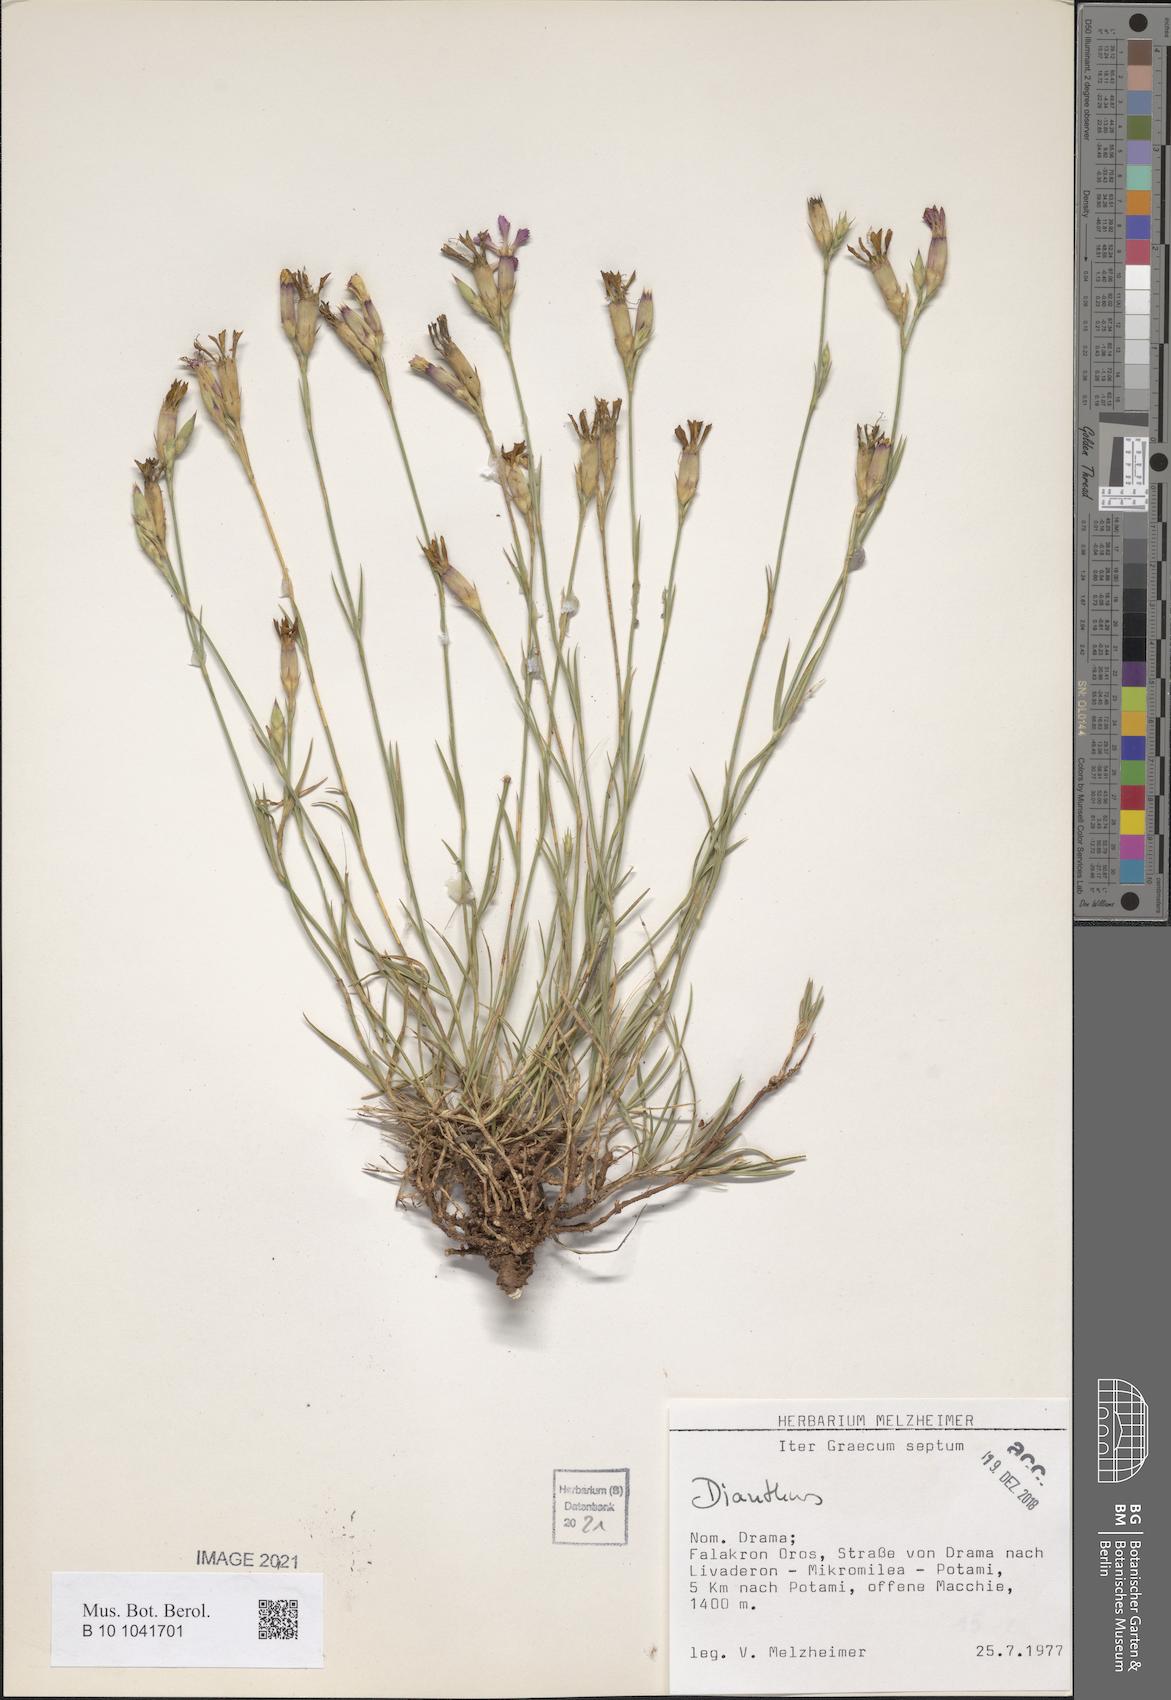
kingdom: Plantae
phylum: Tracheophyta
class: Magnoliopsida
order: Caryophyllales
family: Caryophyllaceae
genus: Dianthus
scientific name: Dianthus
